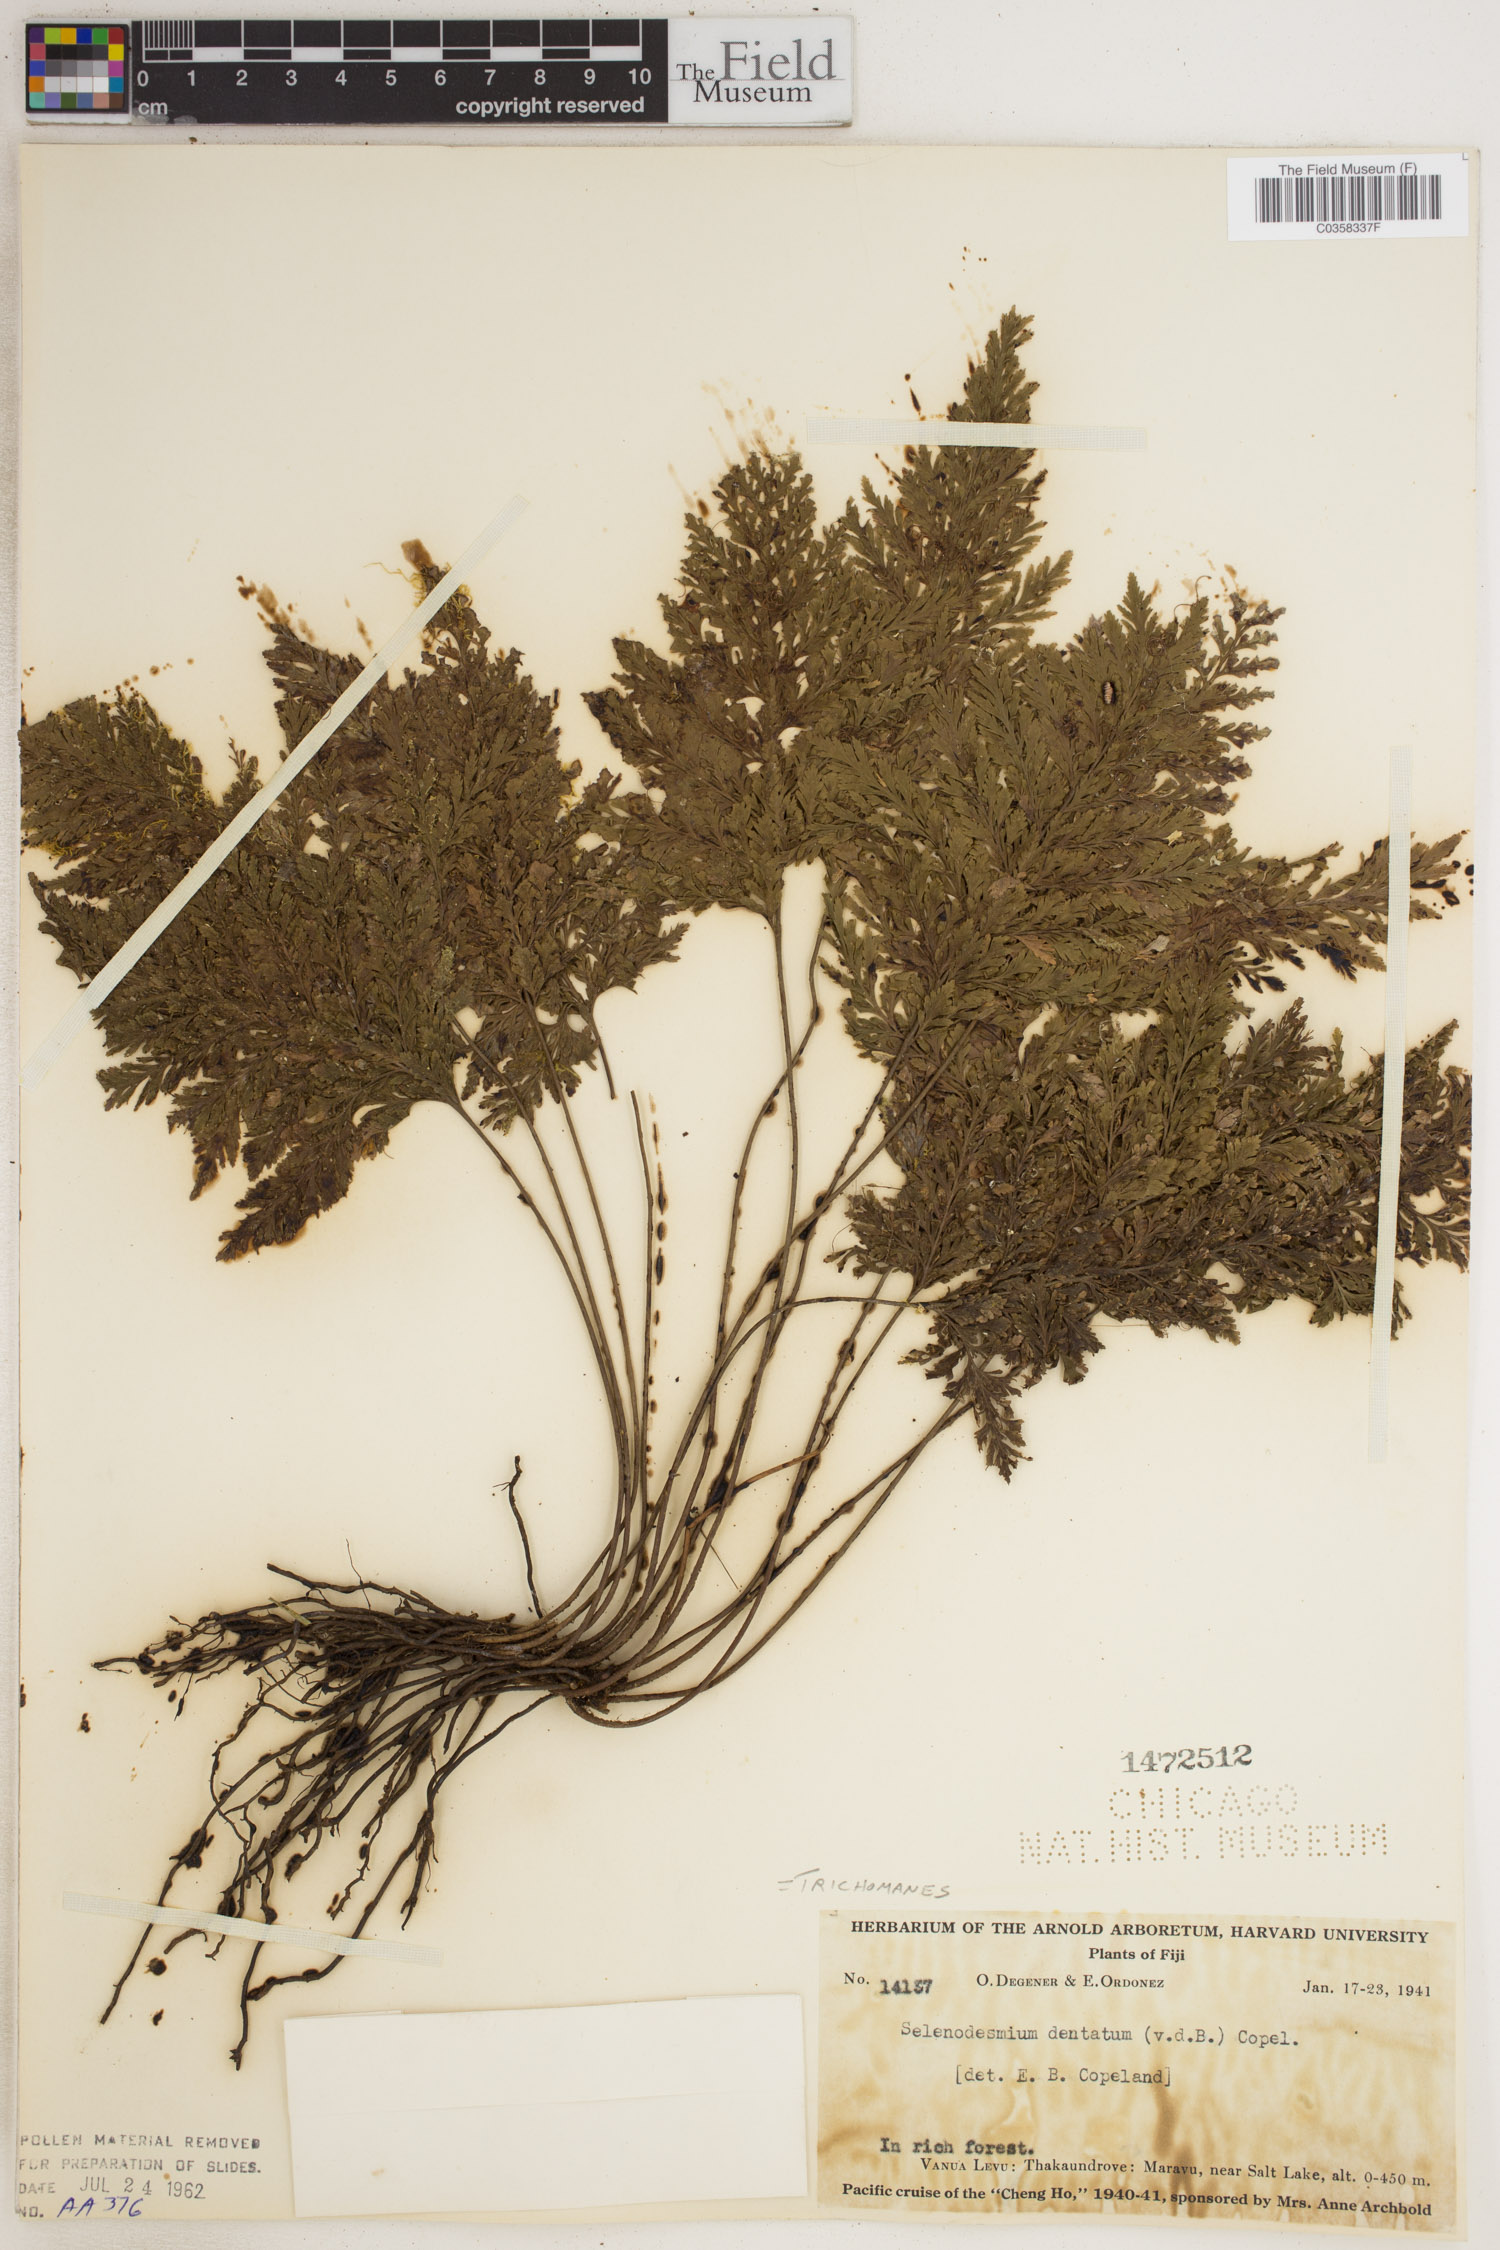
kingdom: Plantae
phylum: Tracheophyta
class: Polypodiopsida
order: Hymenophyllales
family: Hymenophyllaceae
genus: Abrodictyum
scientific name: Abrodictyum dentatum
